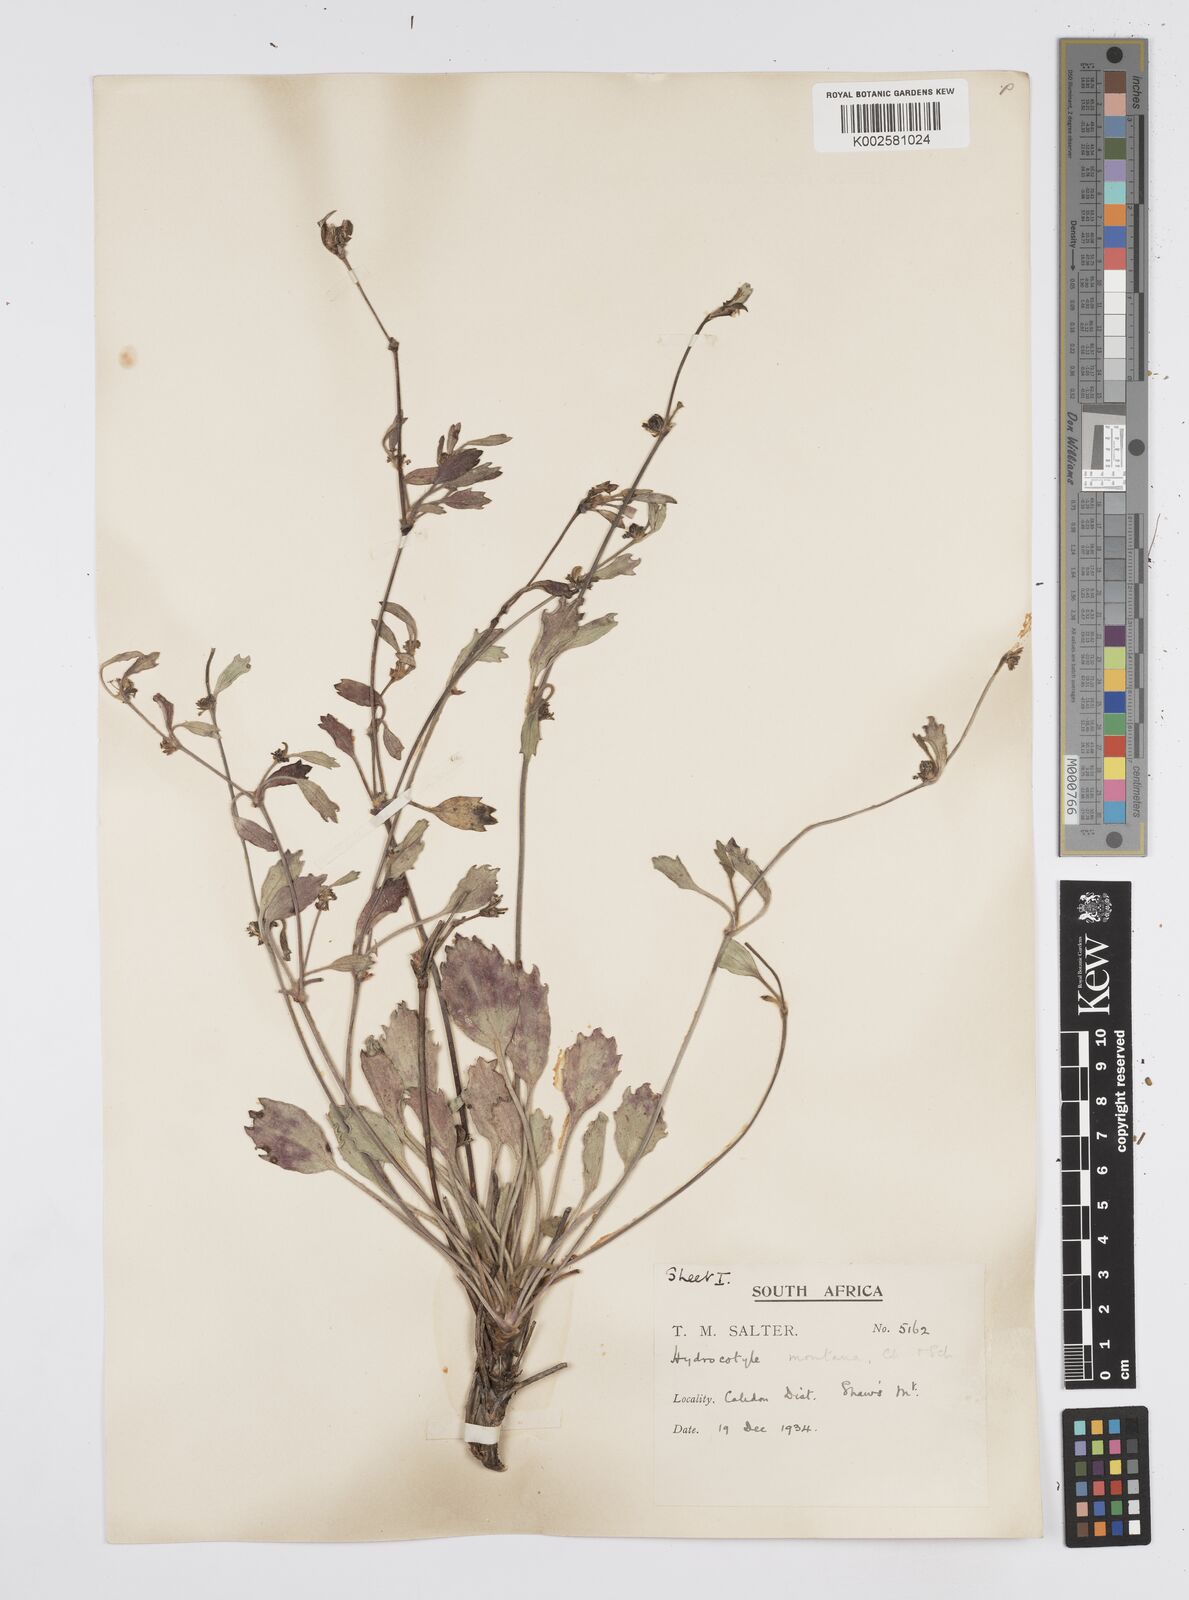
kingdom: Plantae
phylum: Tracheophyta
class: Magnoliopsida
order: Apiales
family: Apiaceae
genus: Centella
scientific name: Centella difformis
